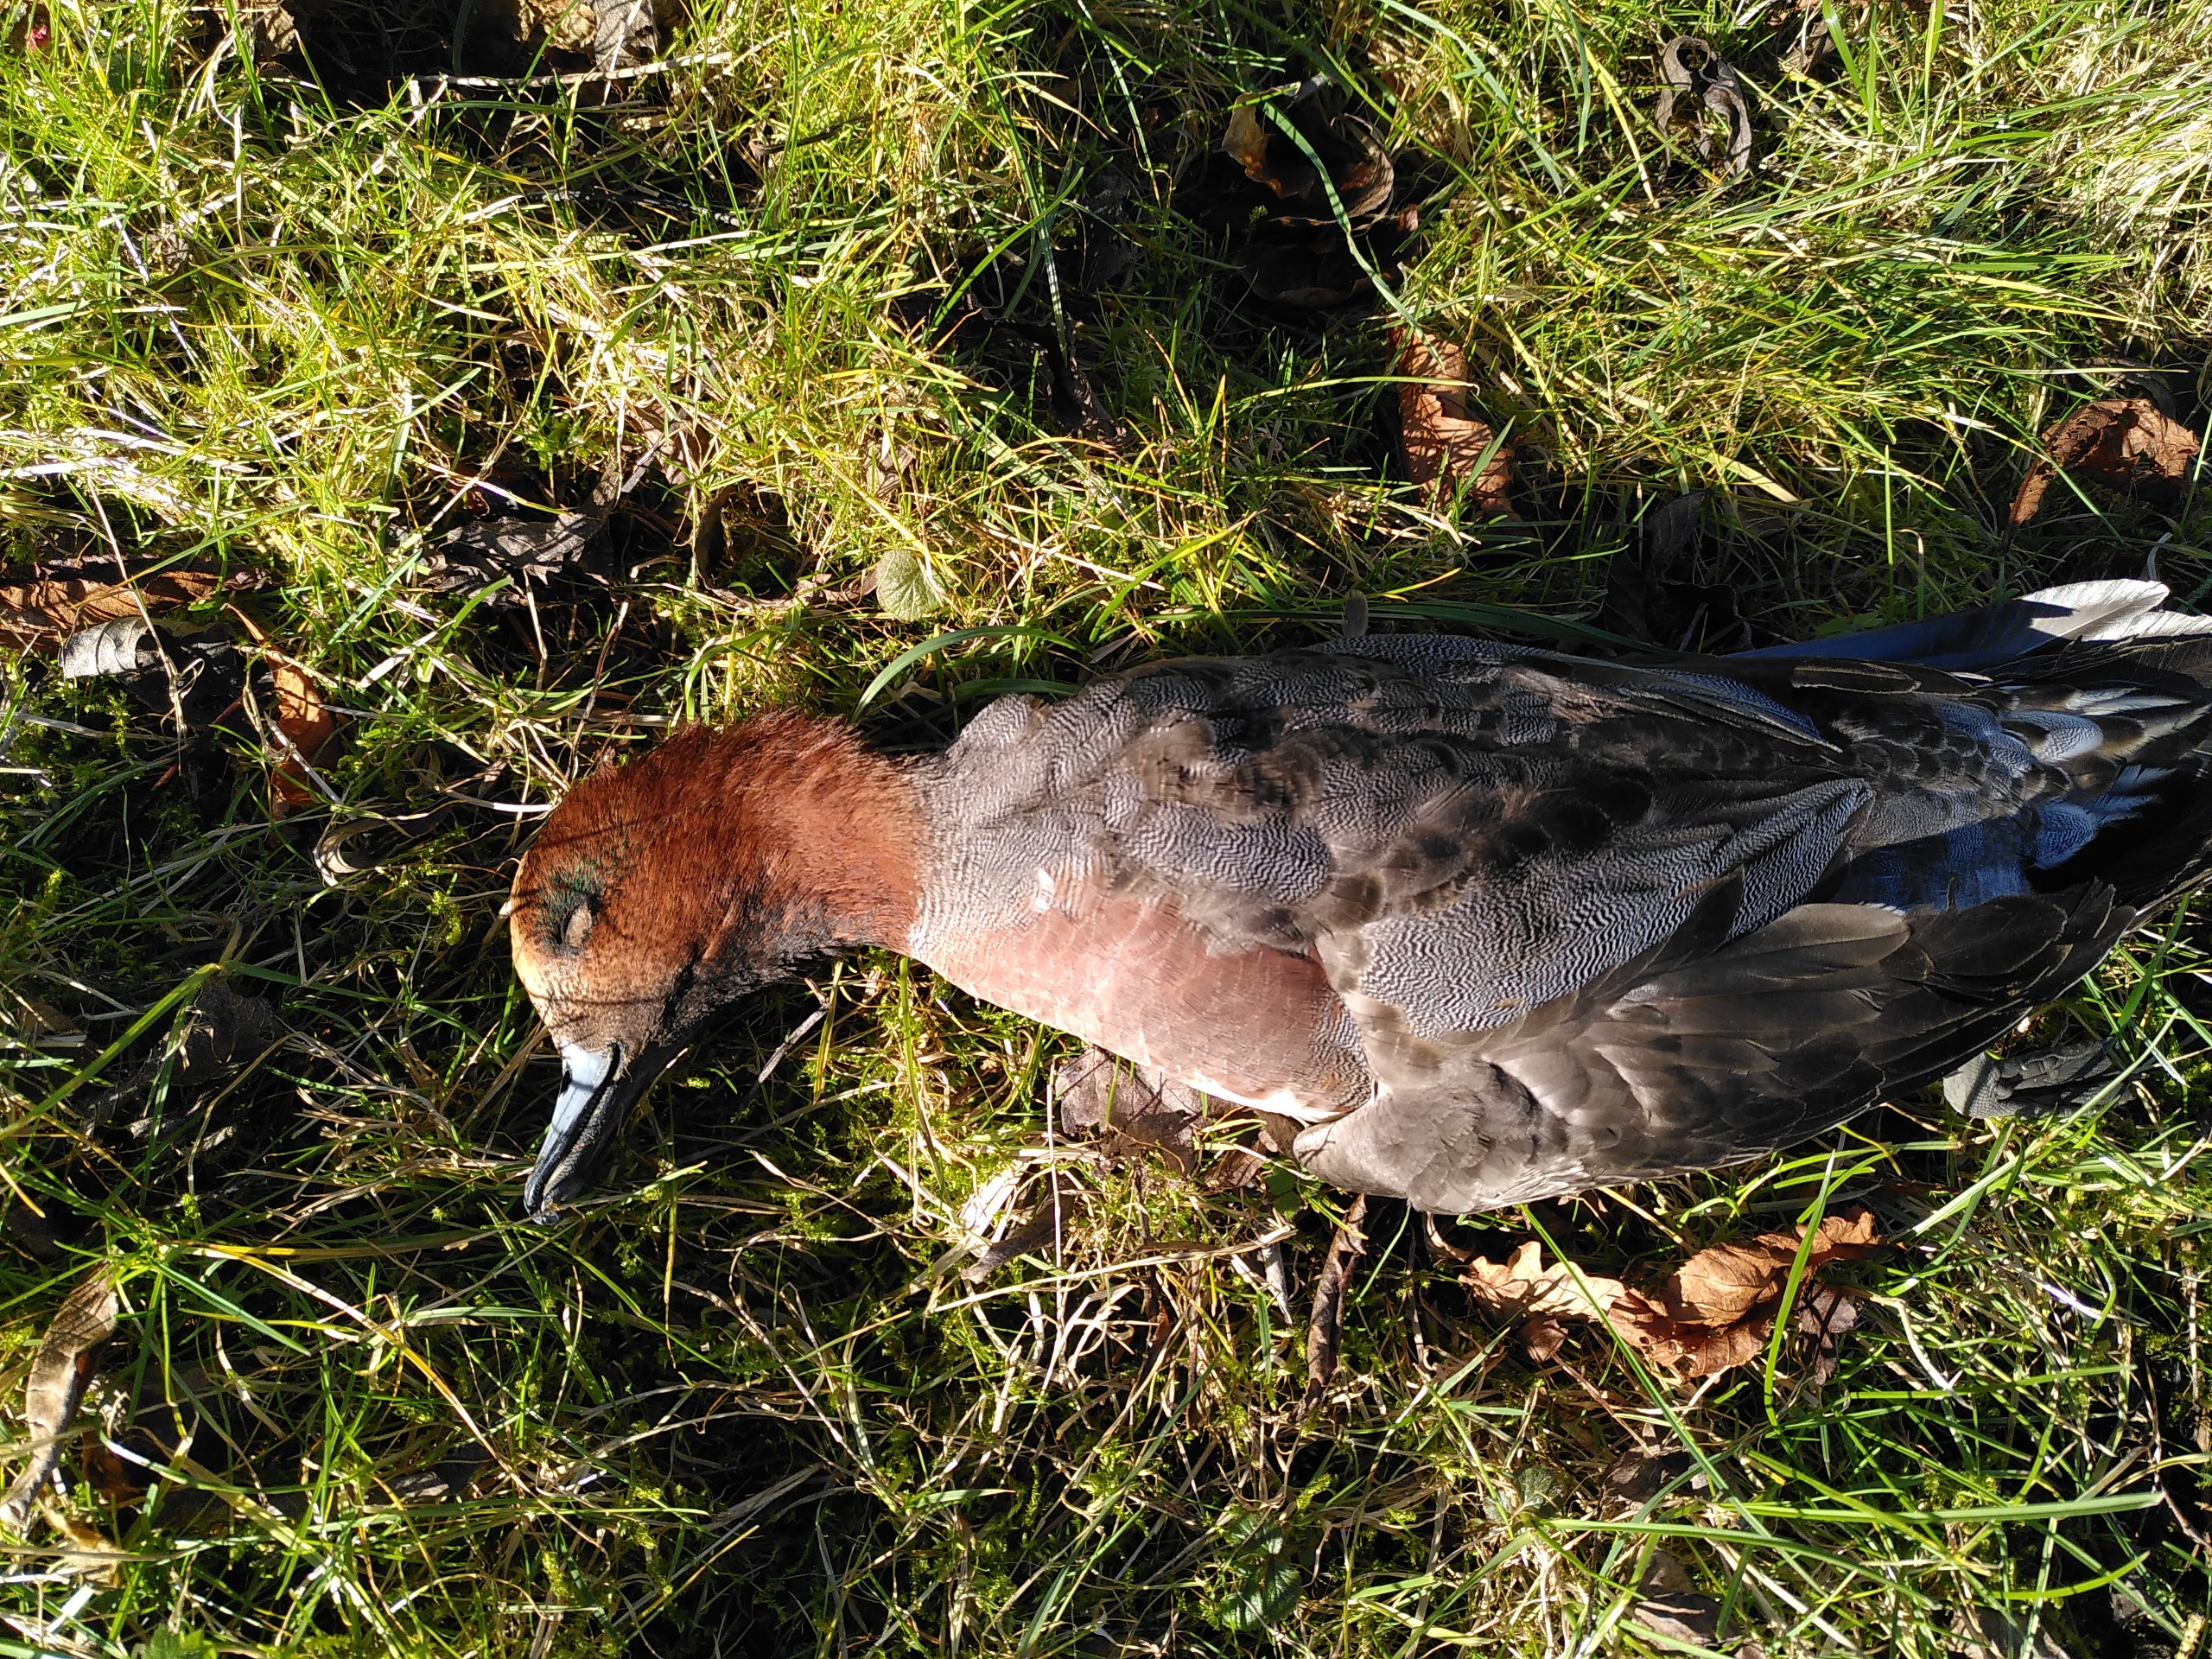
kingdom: Animalia
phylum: Chordata
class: Aves
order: Anseriformes
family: Anatidae
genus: Mareca
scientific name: Mareca penelope
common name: Pibeand
